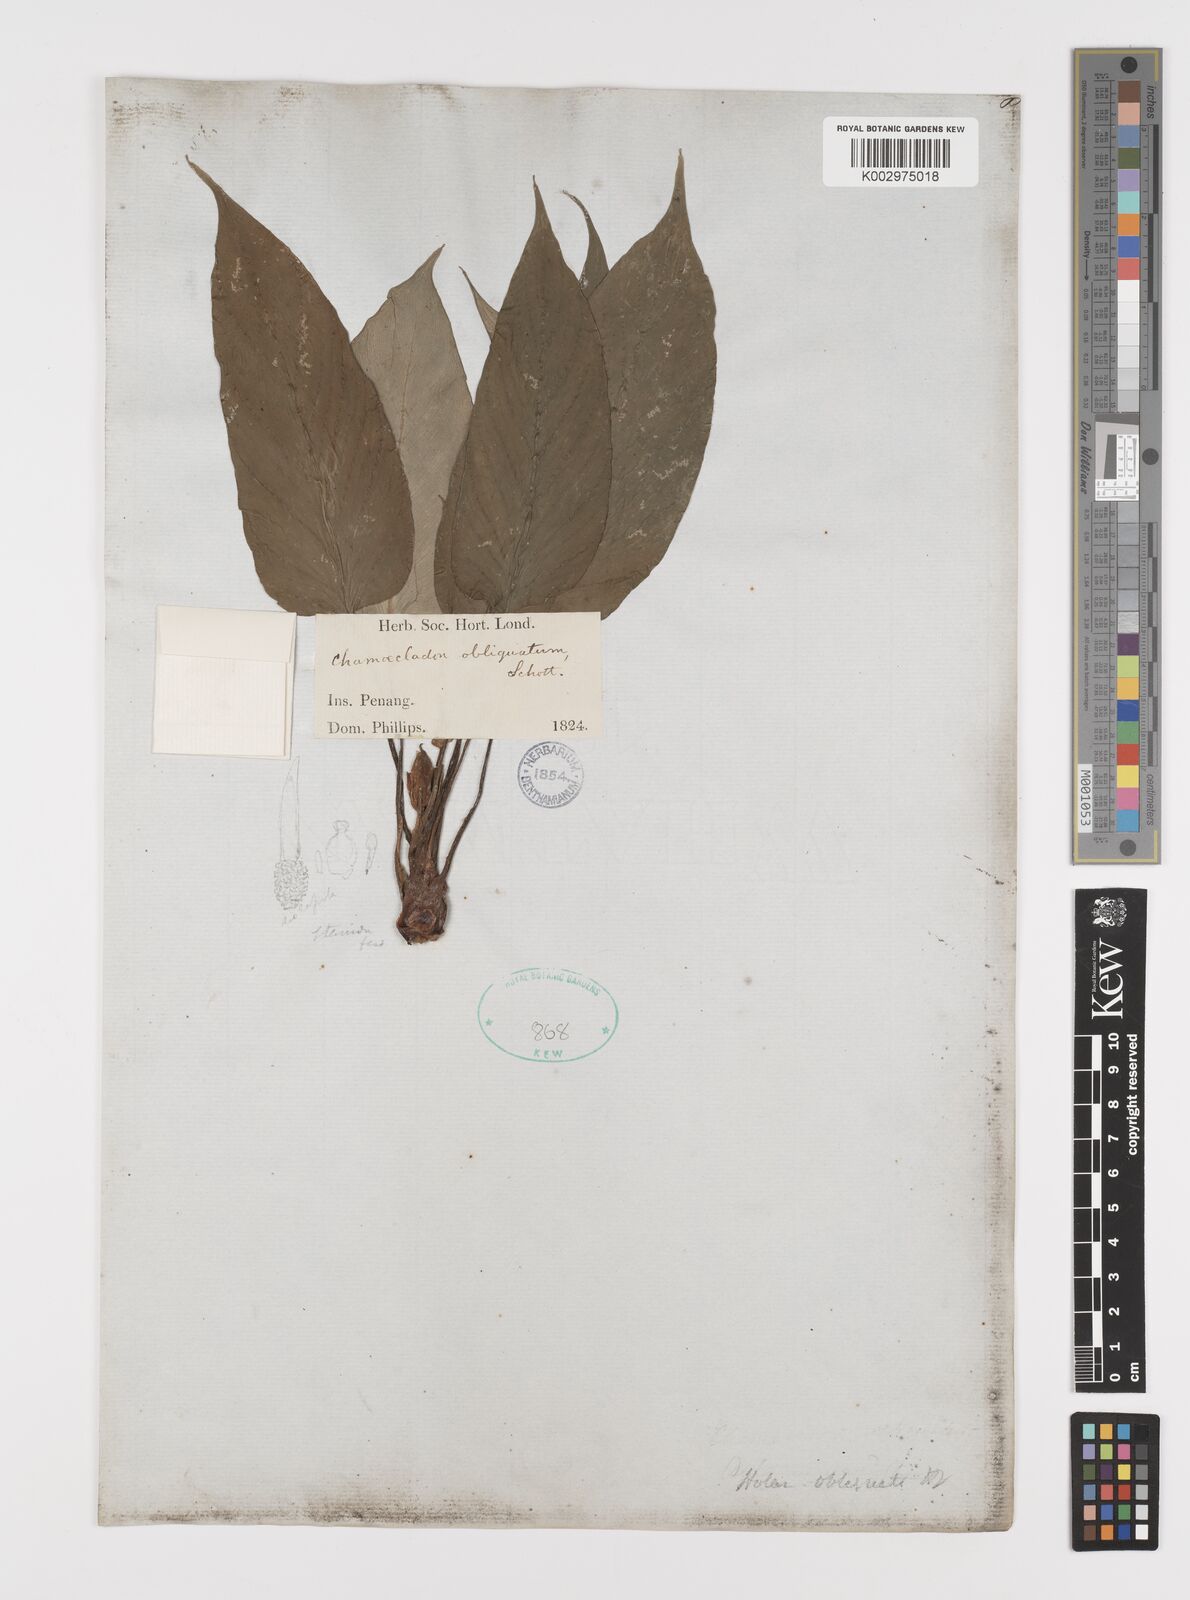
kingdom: Plantae
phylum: Tracheophyta
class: Liliopsida
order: Alismatales
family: Araceae
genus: Homalomena
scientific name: Homalomena griffithii
